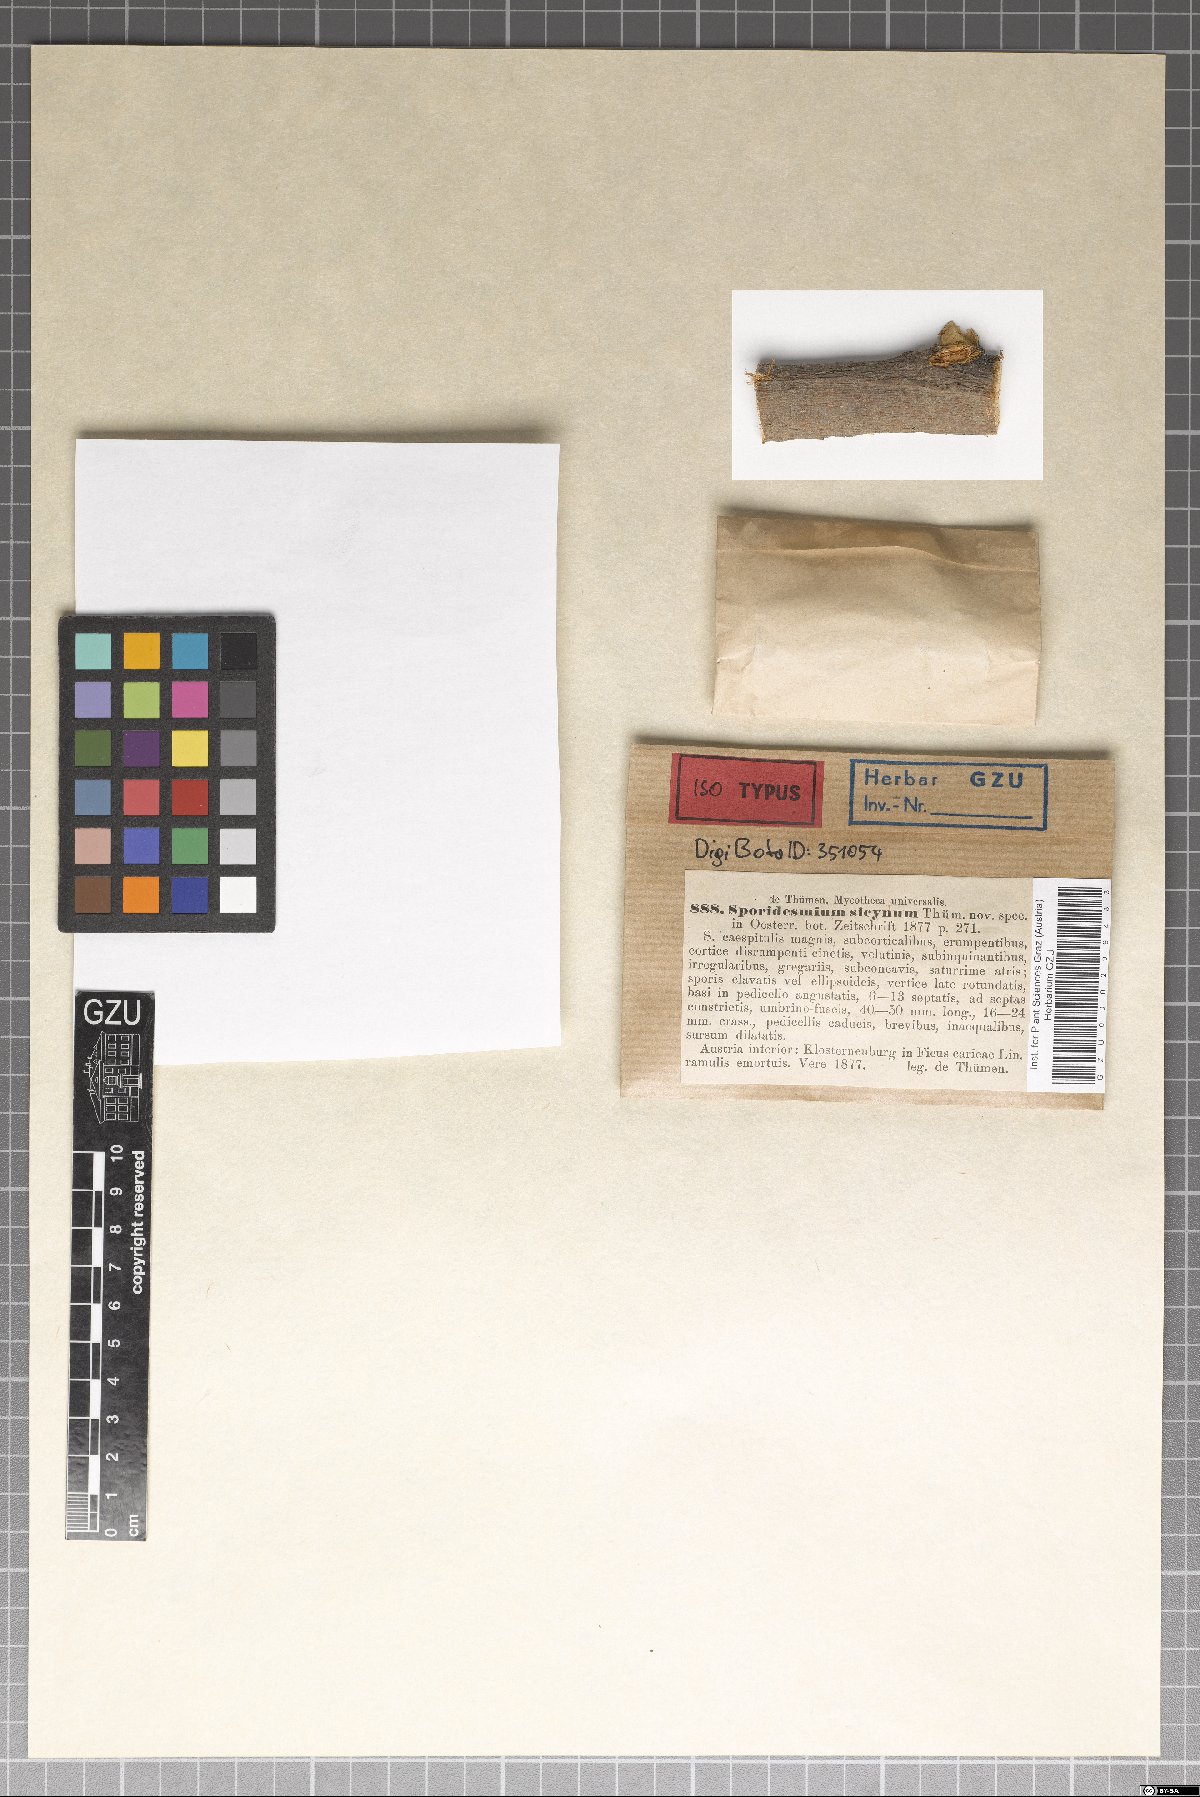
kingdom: Fungi
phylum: Ascomycota
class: Dothideomycetes
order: Mycosphaerellales
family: Mycosphaerellaceae
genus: Stigmina
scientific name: Stigmina sycina
